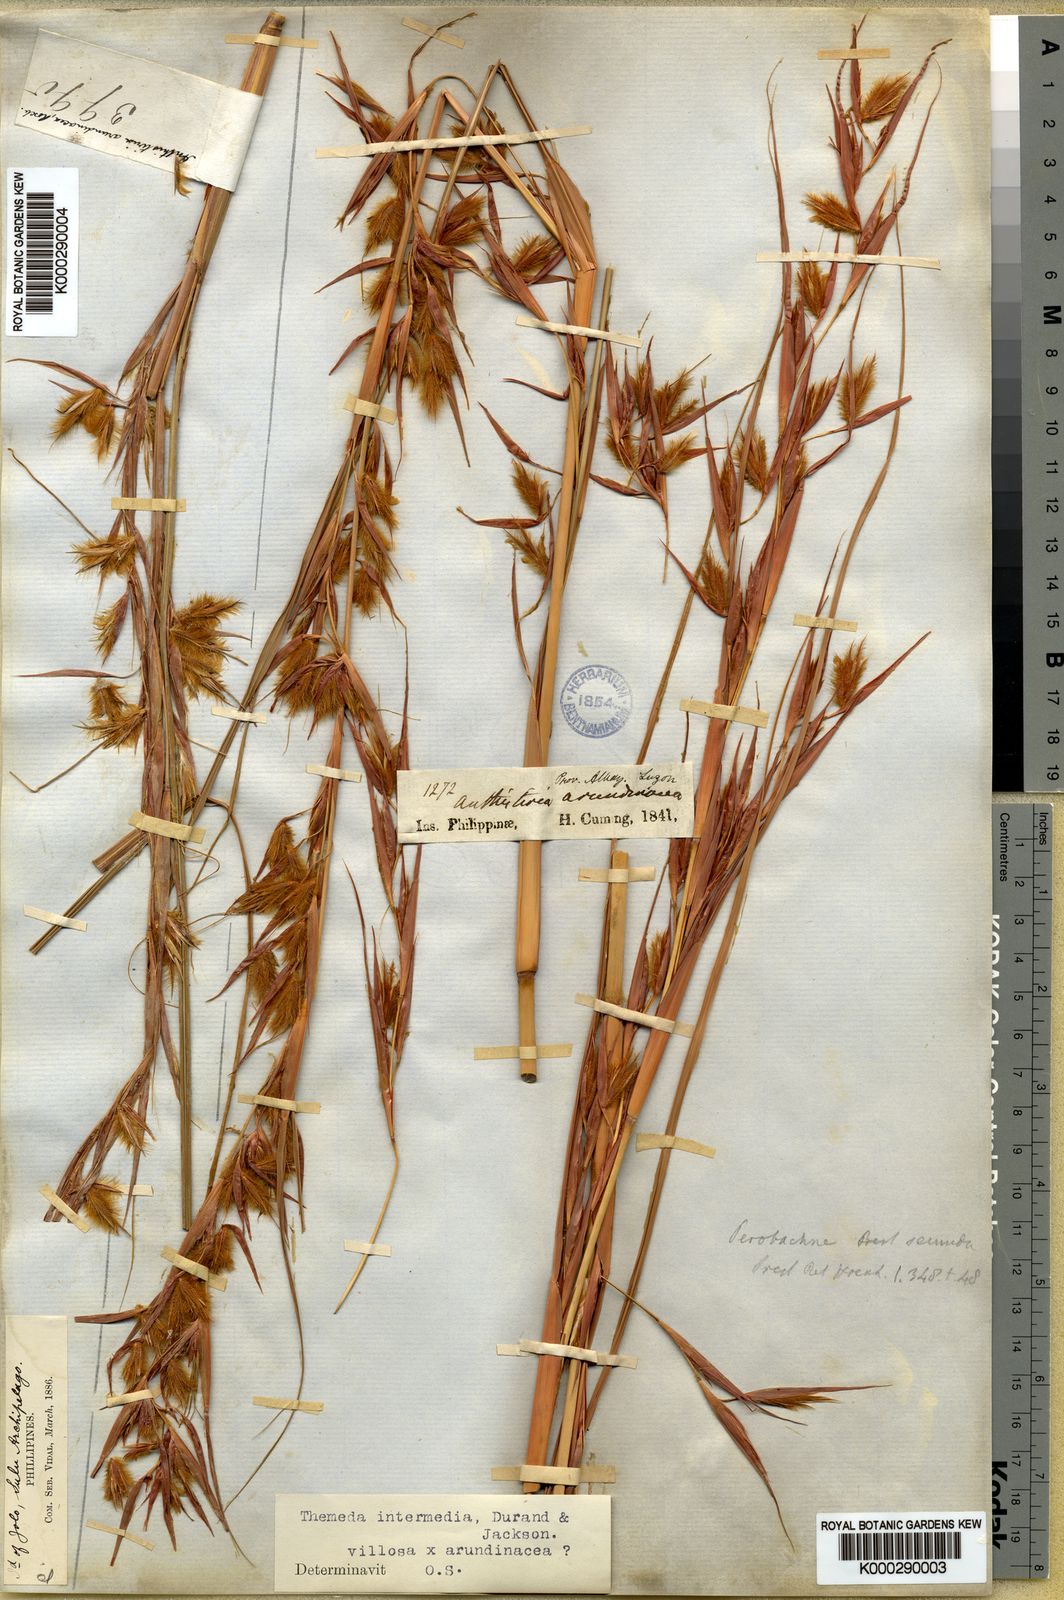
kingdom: Plantae
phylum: Tracheophyta
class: Liliopsida
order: Poales
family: Poaceae
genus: Themeda
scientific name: Themeda arundinacea
